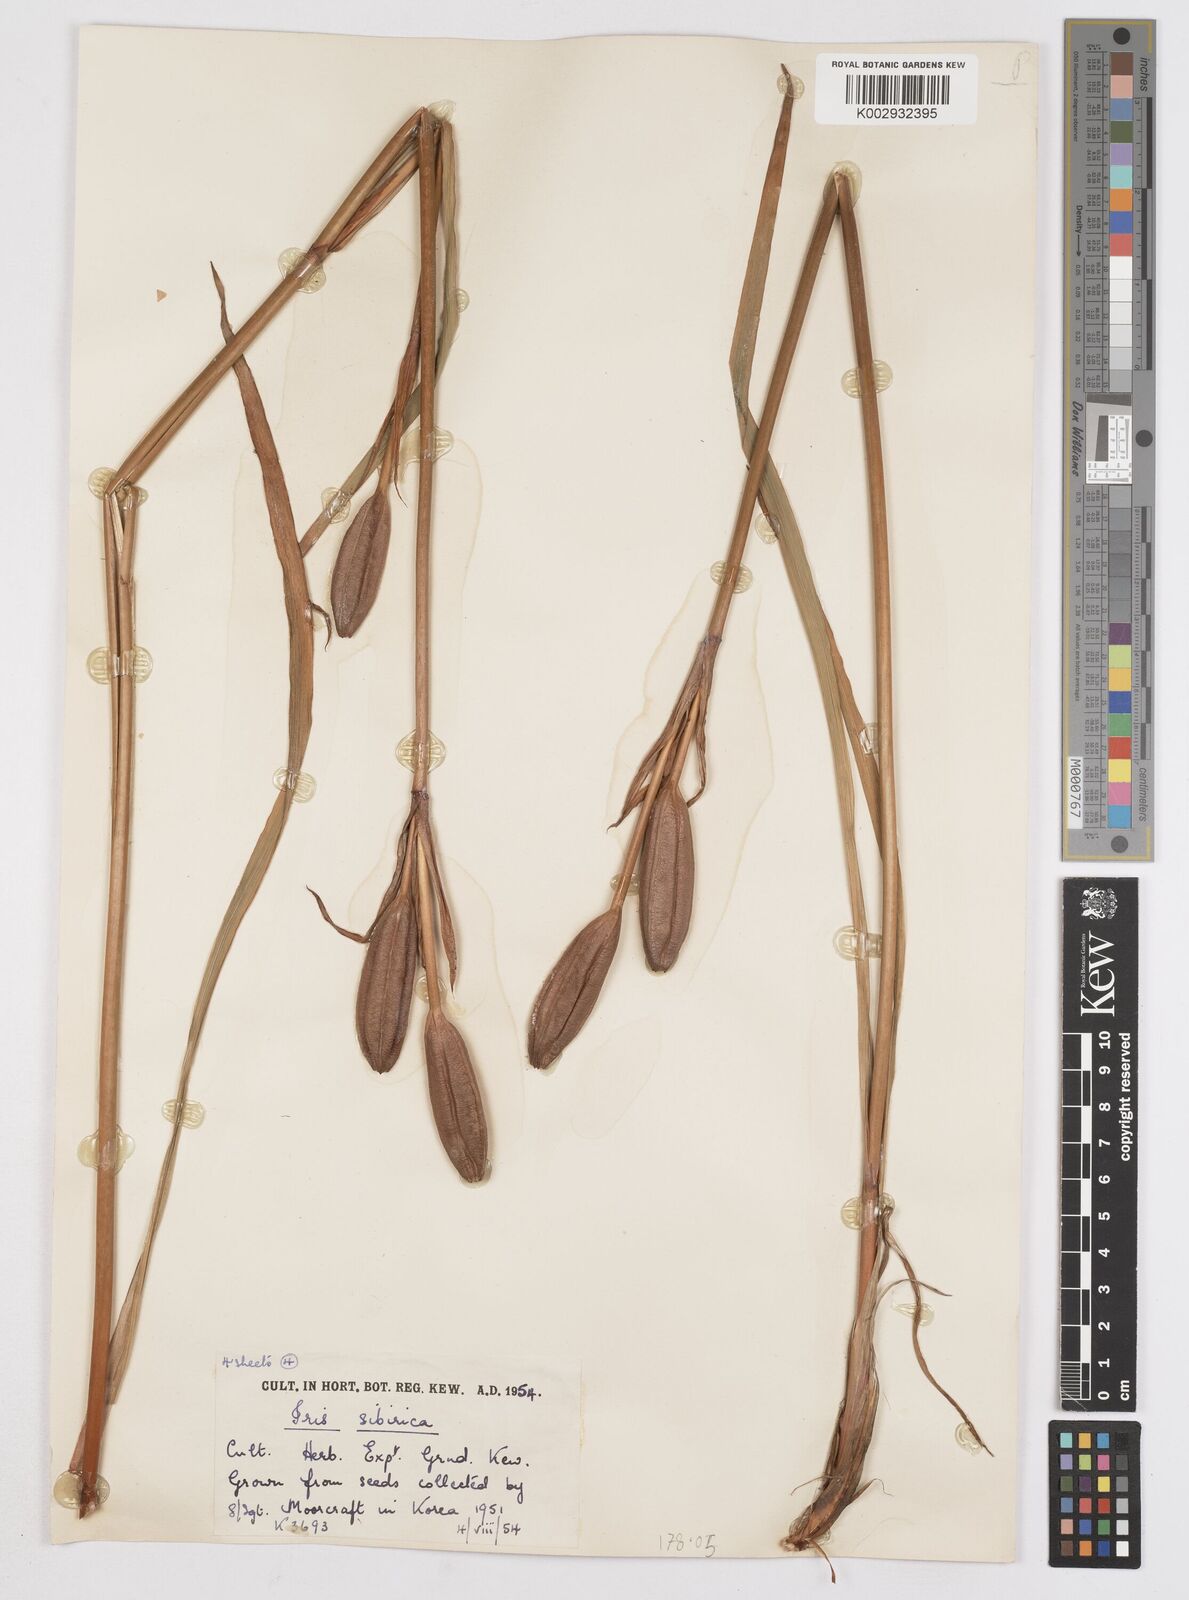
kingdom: Plantae
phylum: Tracheophyta
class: Liliopsida
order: Asparagales
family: Iridaceae
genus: Iris
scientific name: Iris sibirica
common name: Siberian iris
